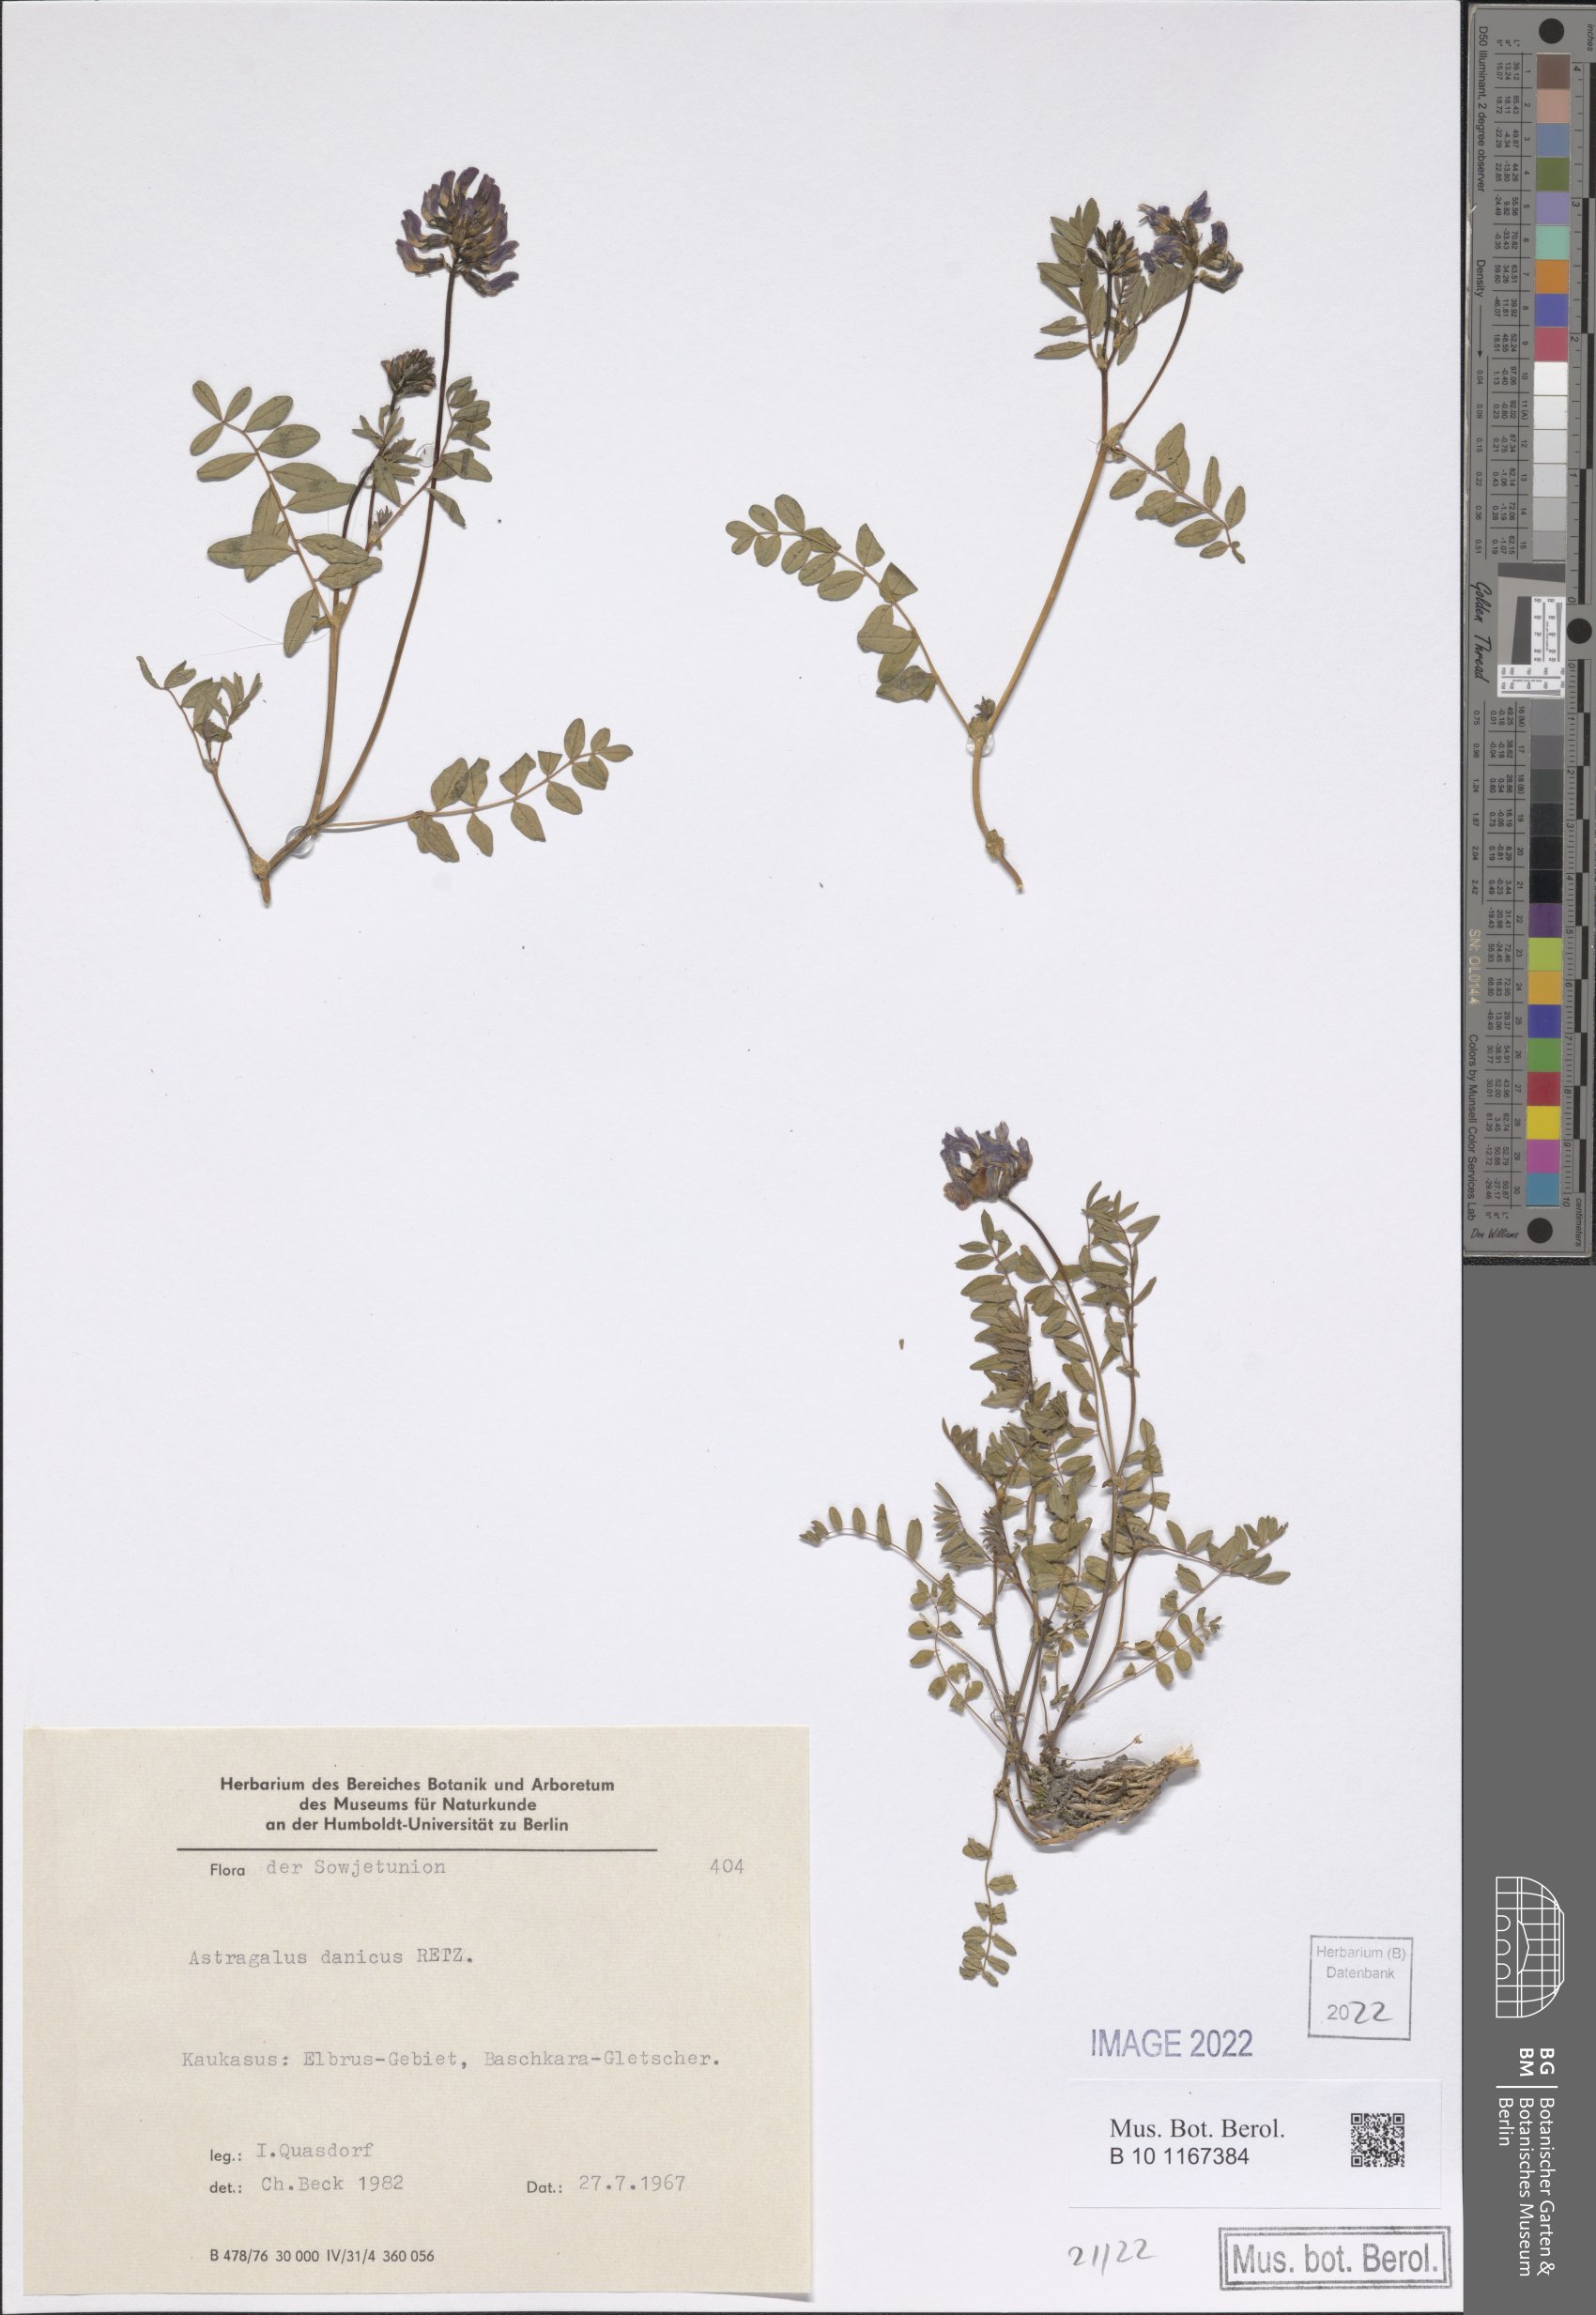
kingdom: Plantae
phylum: Tracheophyta
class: Magnoliopsida
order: Fabales
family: Fabaceae
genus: Astragalus
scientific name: Astragalus danicus
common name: Purple milk-vetch
